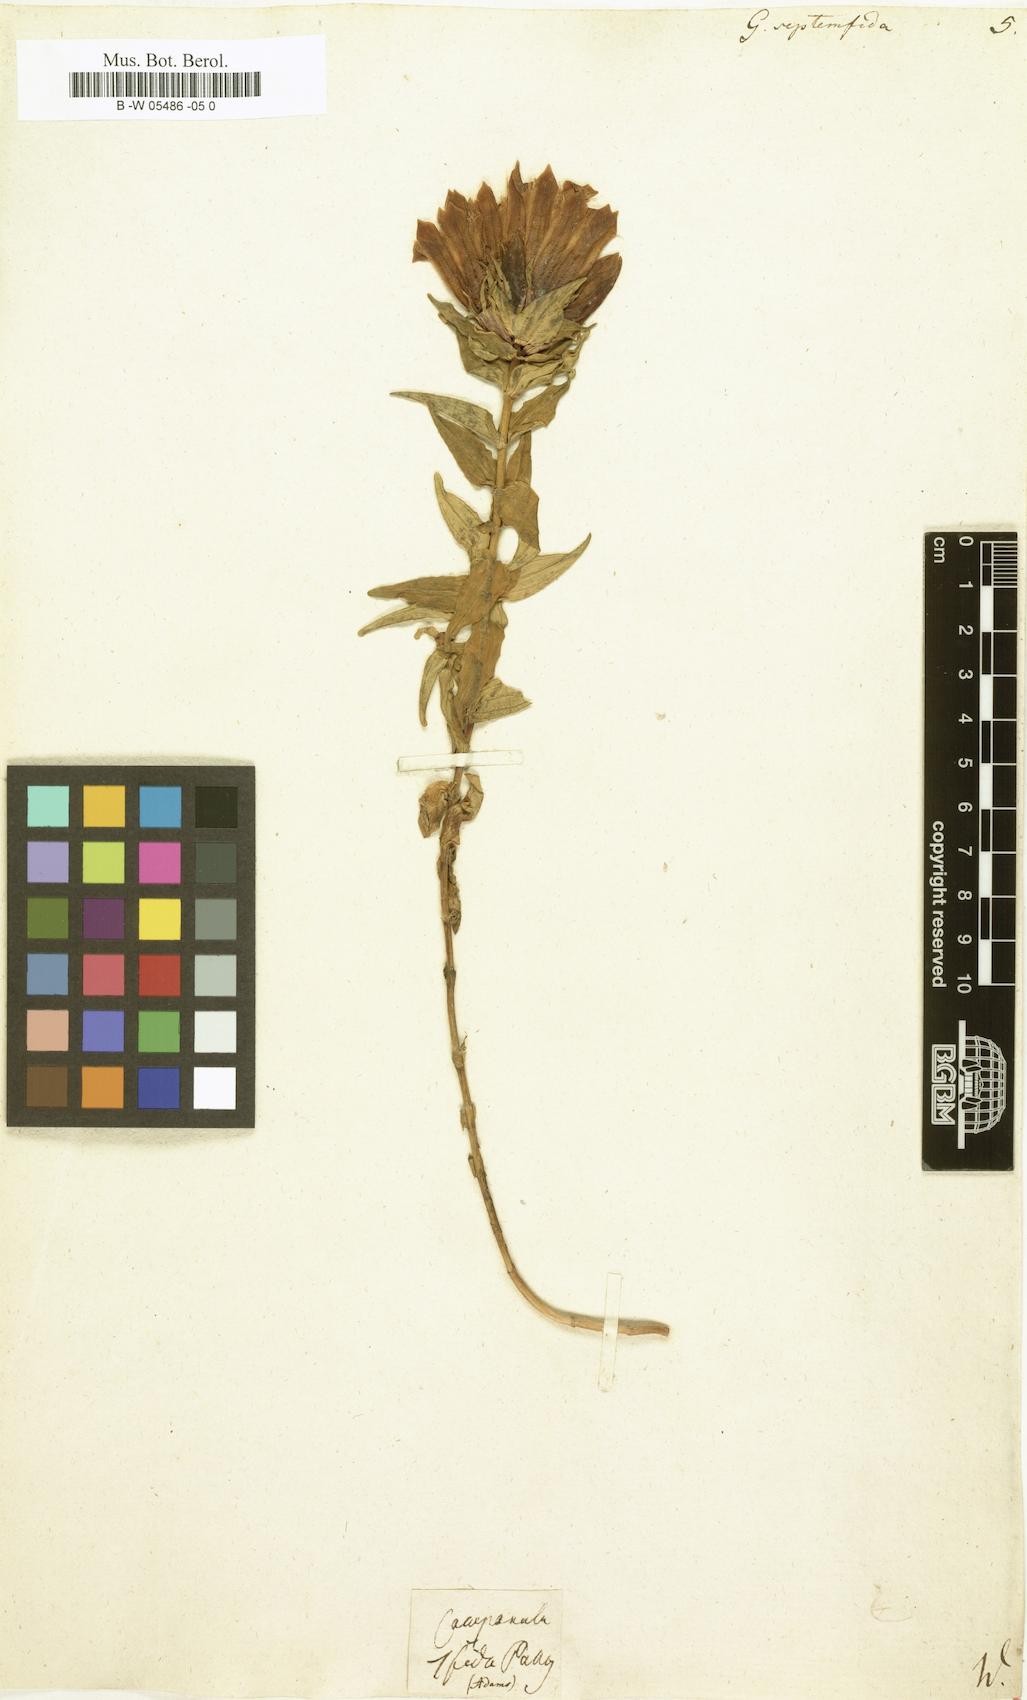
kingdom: Plantae
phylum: Tracheophyta
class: Magnoliopsida
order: Gentianales
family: Gentianaceae
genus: Gentiana
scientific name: Gentiana septemfida
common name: Crested gentian
